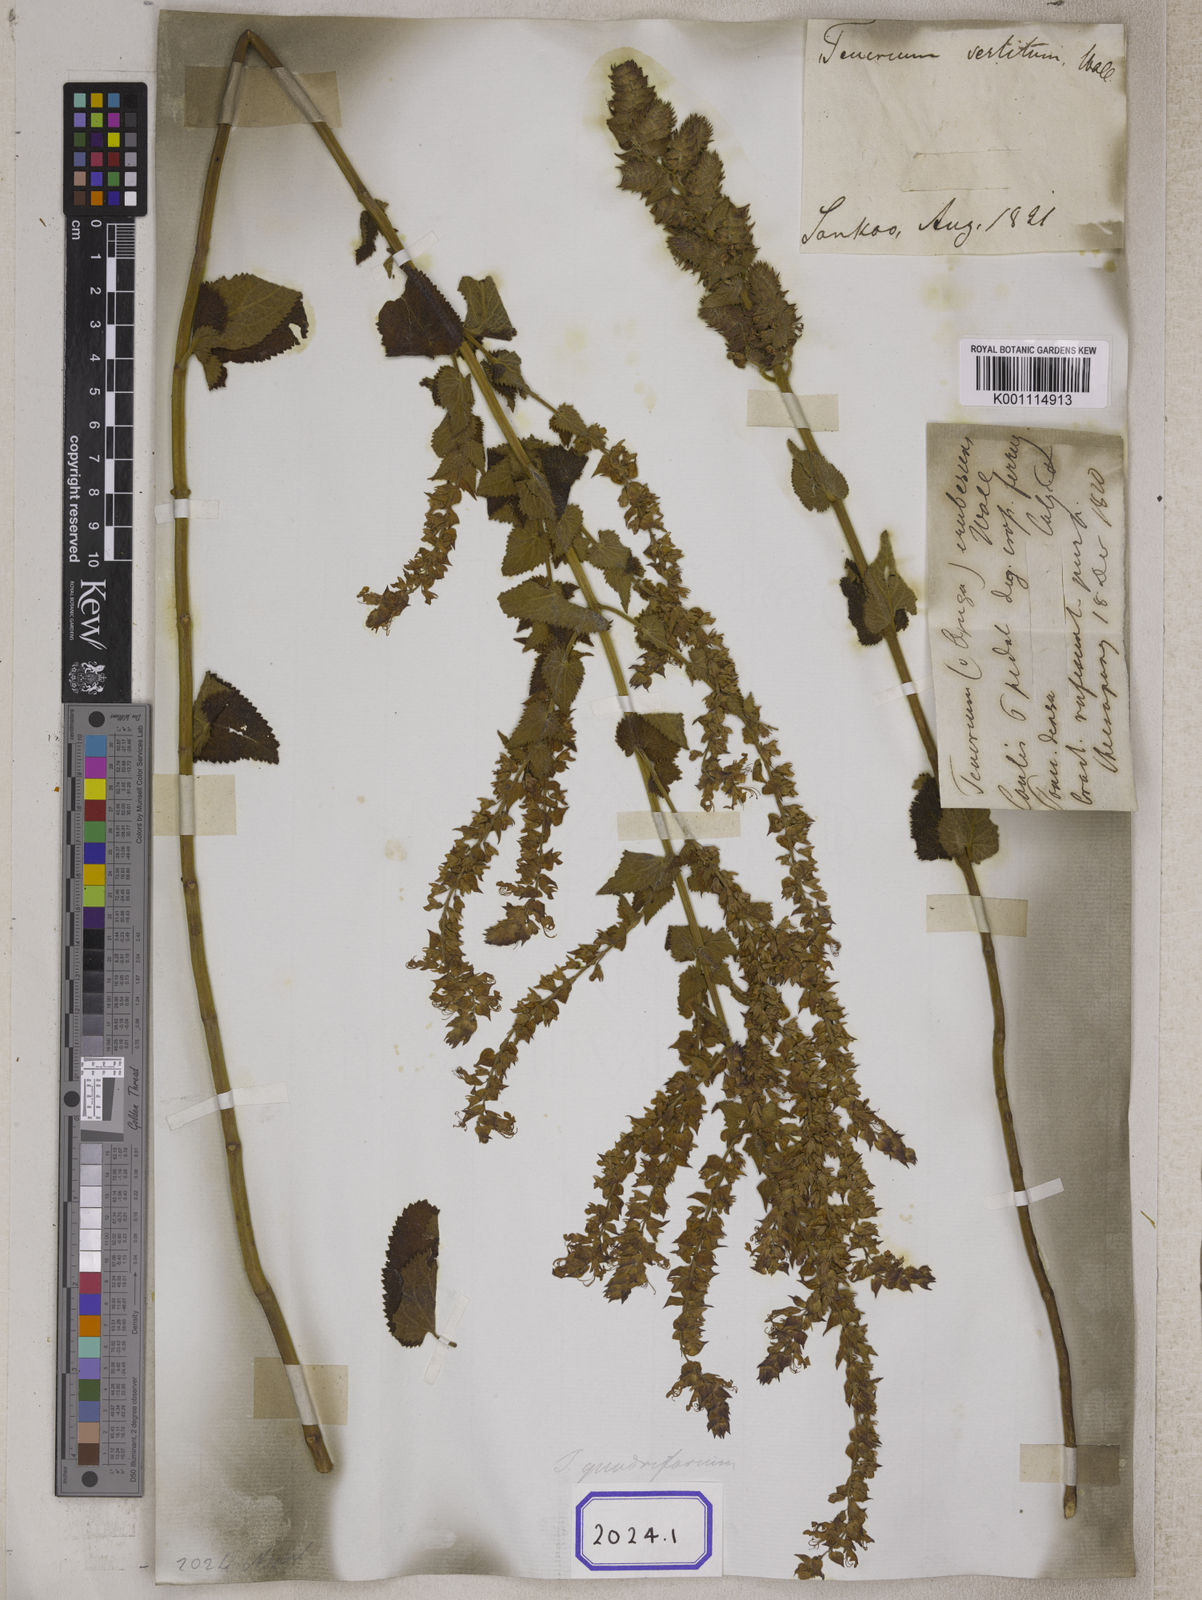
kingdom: Plantae
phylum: Tracheophyta
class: Magnoliopsida
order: Lamiales
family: Lamiaceae
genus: Teucrium
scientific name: Teucrium
